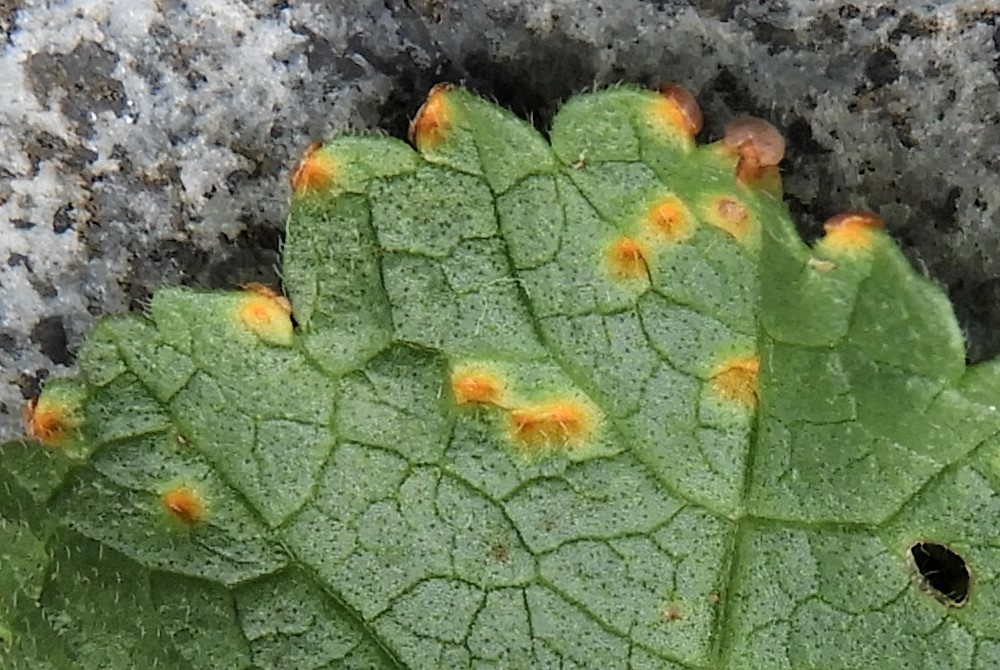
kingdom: Fungi
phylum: Basidiomycota
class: Pucciniomycetes
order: Pucciniales
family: Pucciniaceae
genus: Puccinia
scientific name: Puccinia malvacearum
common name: stokrose-tvecellerust
